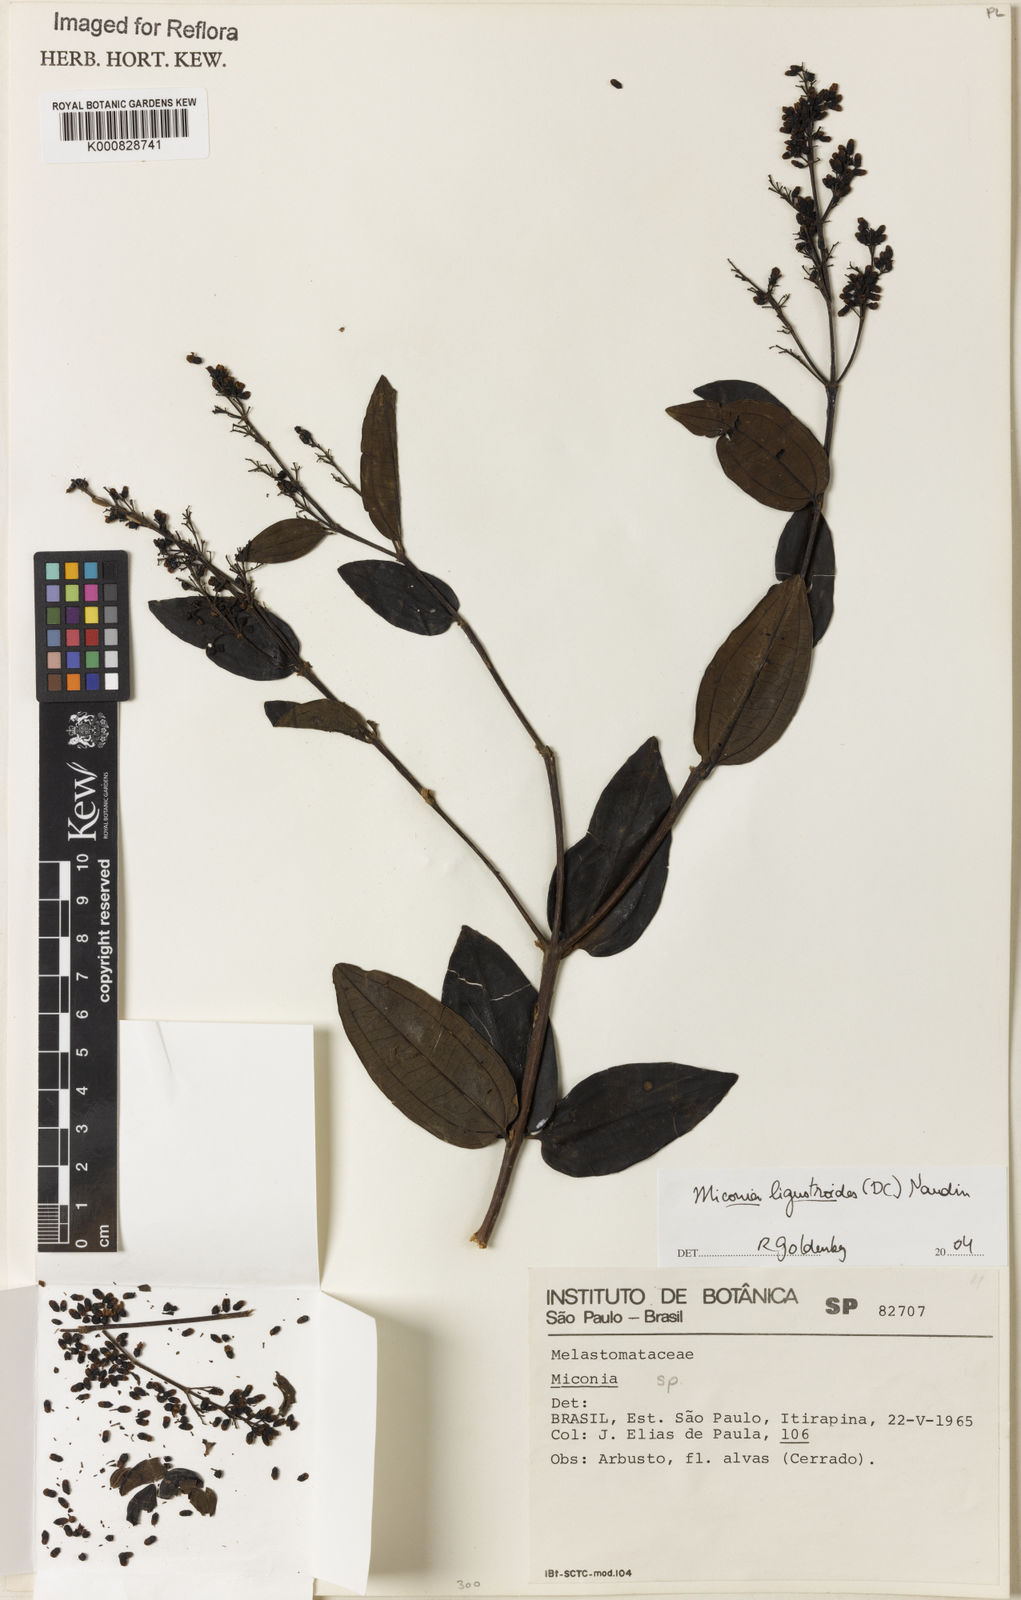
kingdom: Plantae
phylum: Tracheophyta
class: Magnoliopsida
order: Myrtales
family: Melastomataceae
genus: Miconia
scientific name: Miconia ligustroides
